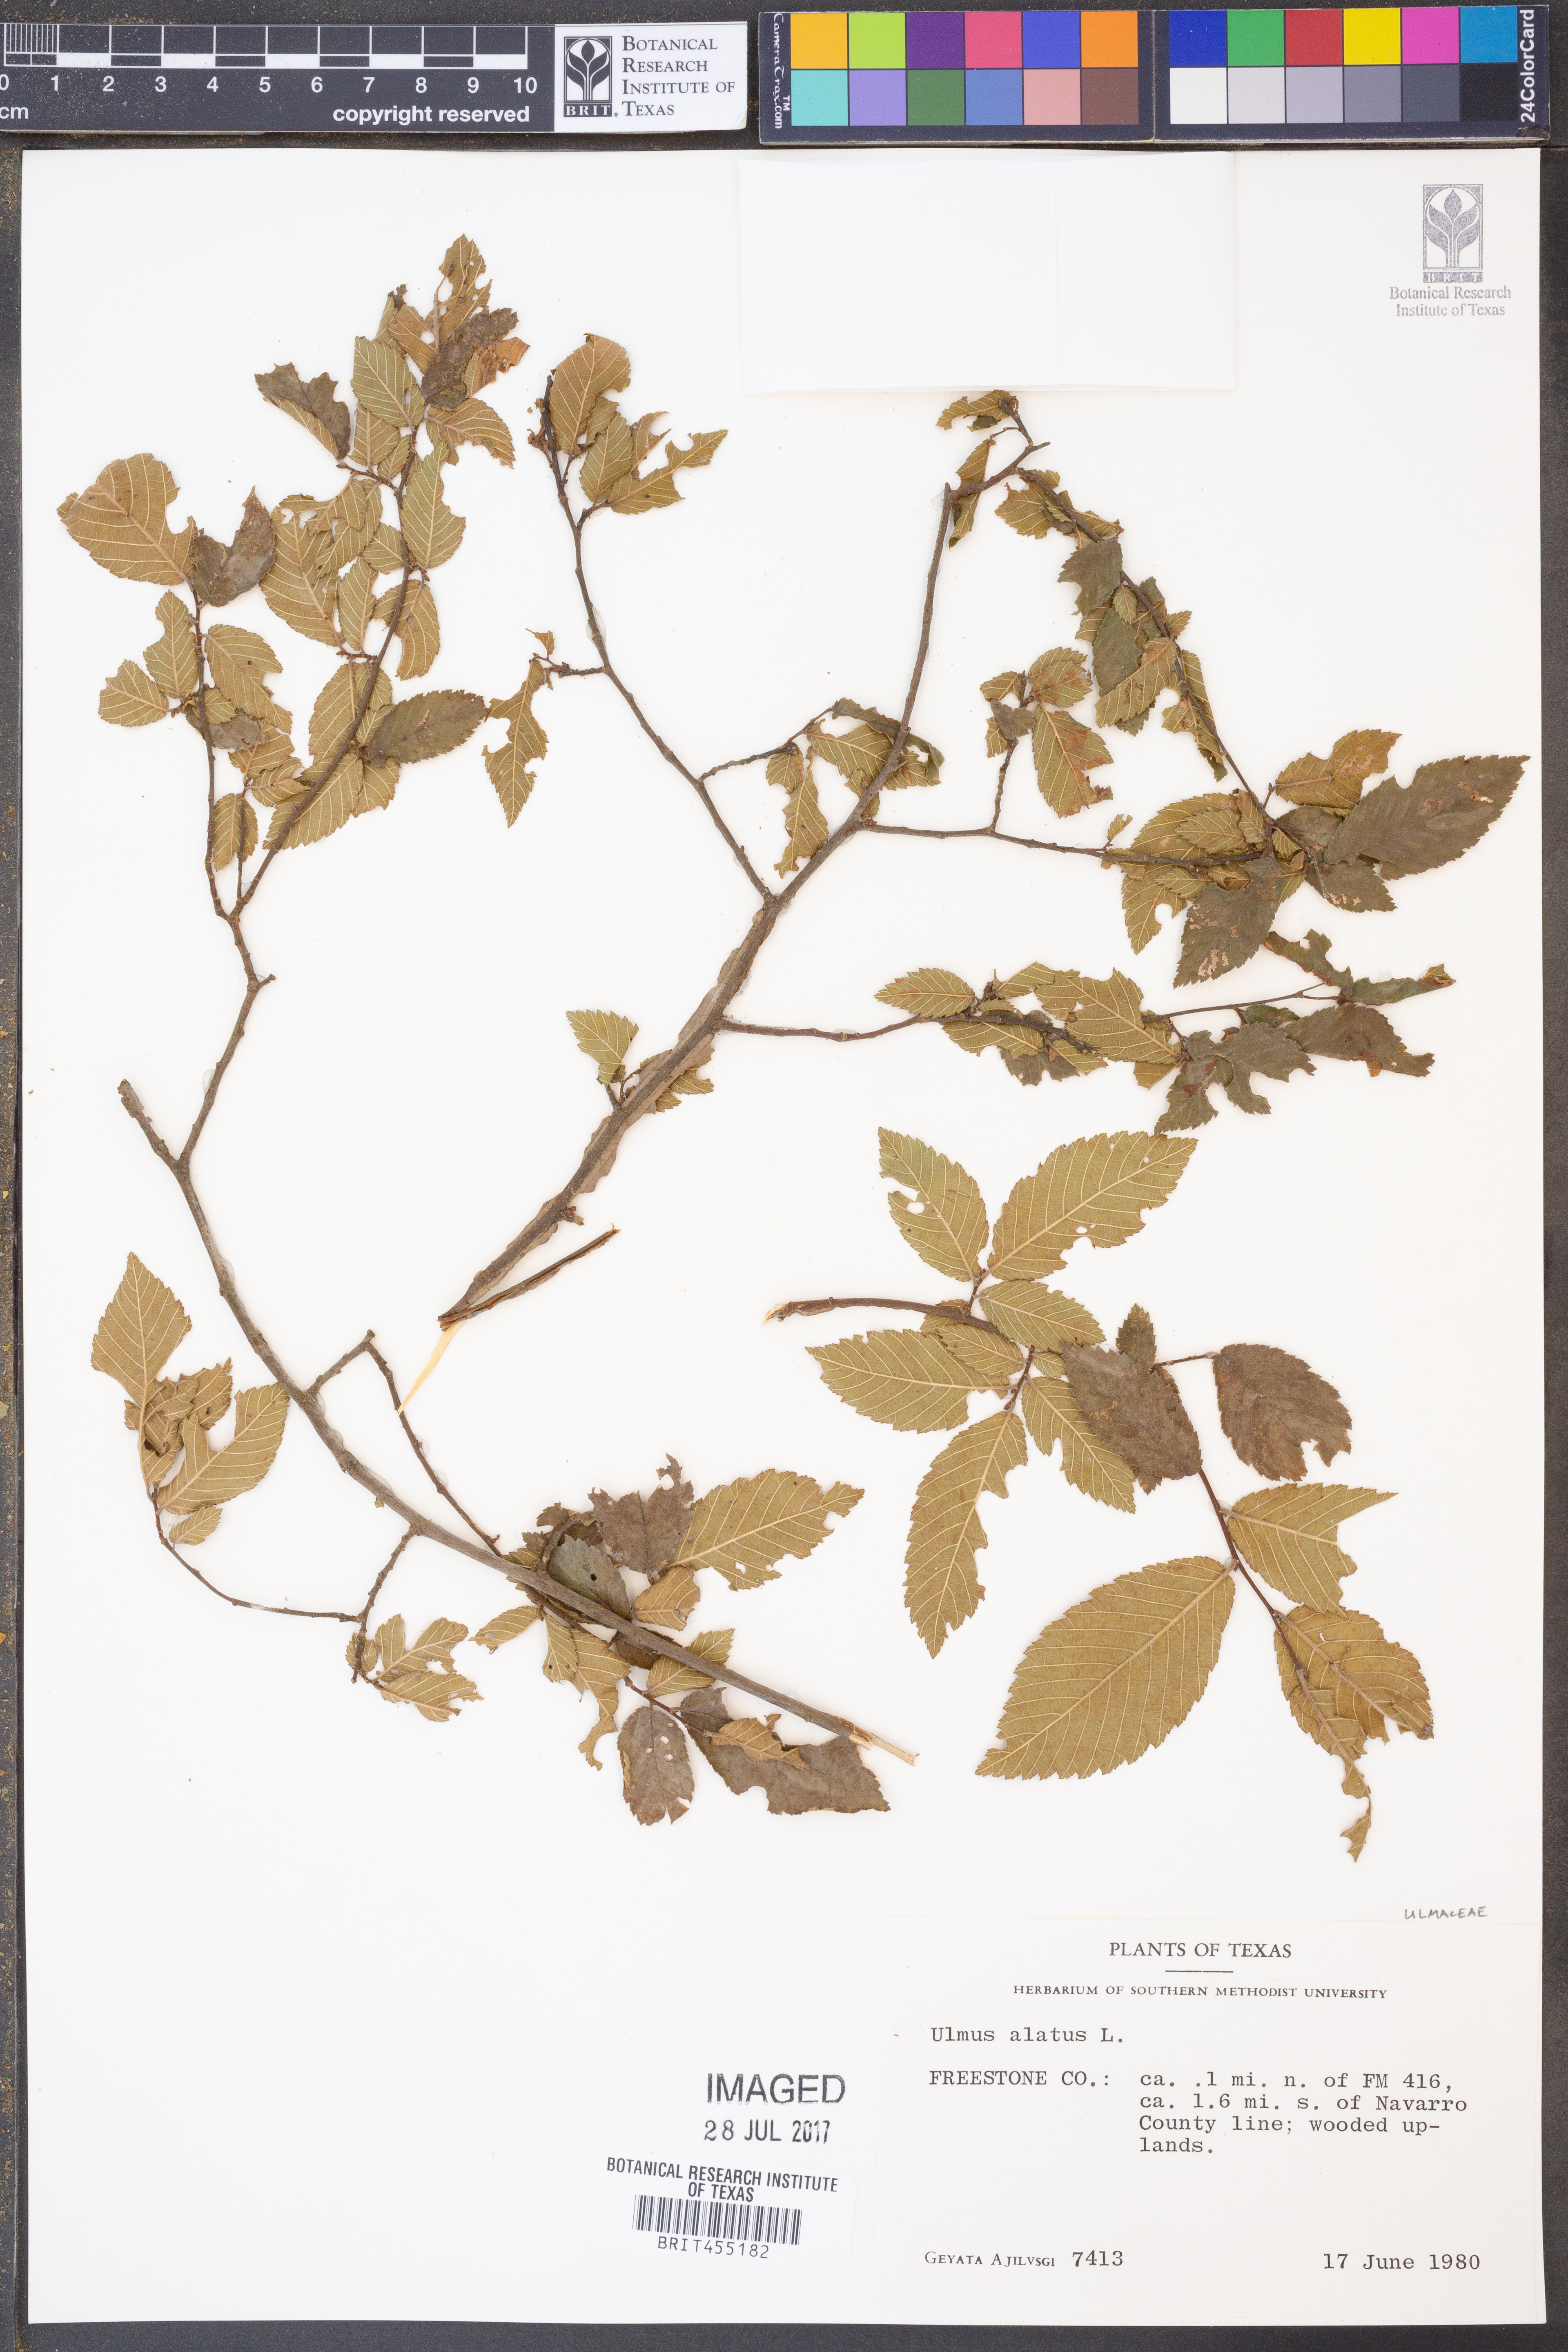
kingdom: Plantae
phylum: Tracheophyta
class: Magnoliopsida
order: Rosales
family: Ulmaceae
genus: Ulmus
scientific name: Ulmus alata
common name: Winged elm
